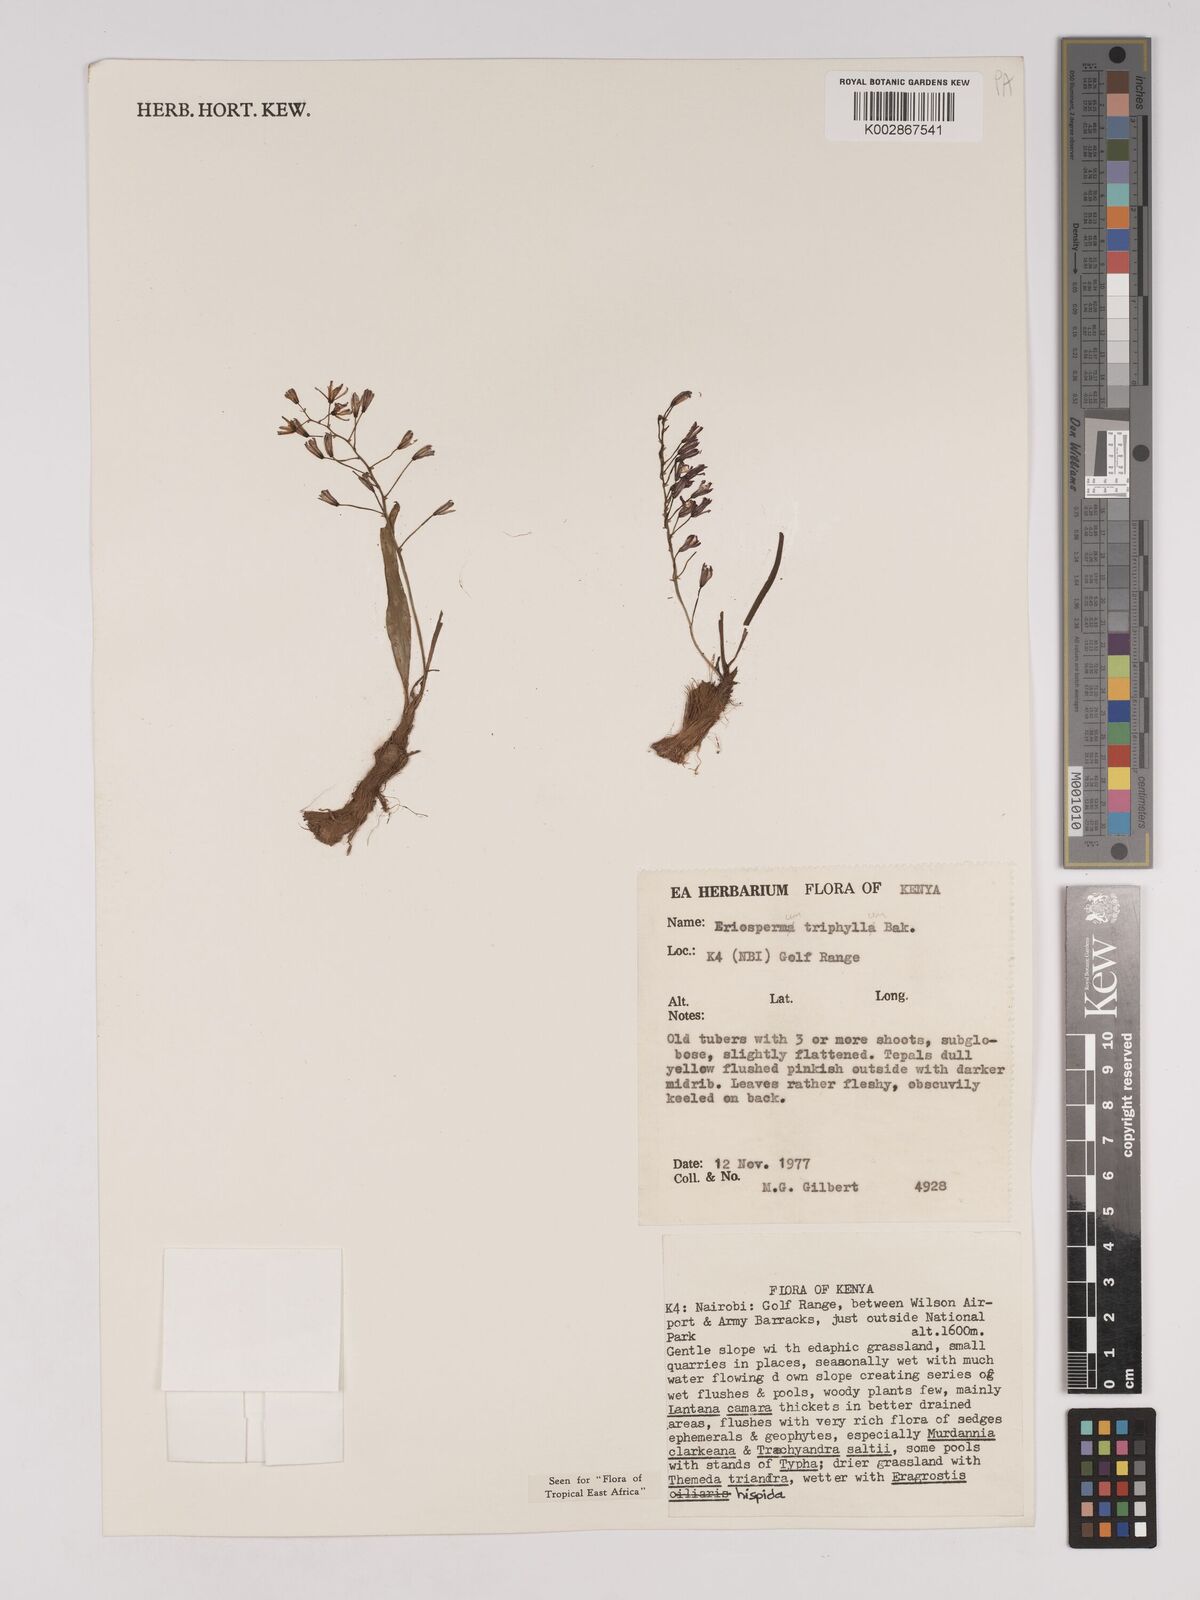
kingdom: Plantae
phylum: Tracheophyta
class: Liliopsida
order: Asparagales
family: Asparagaceae
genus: Eriospermum
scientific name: Eriospermum triphyllum
